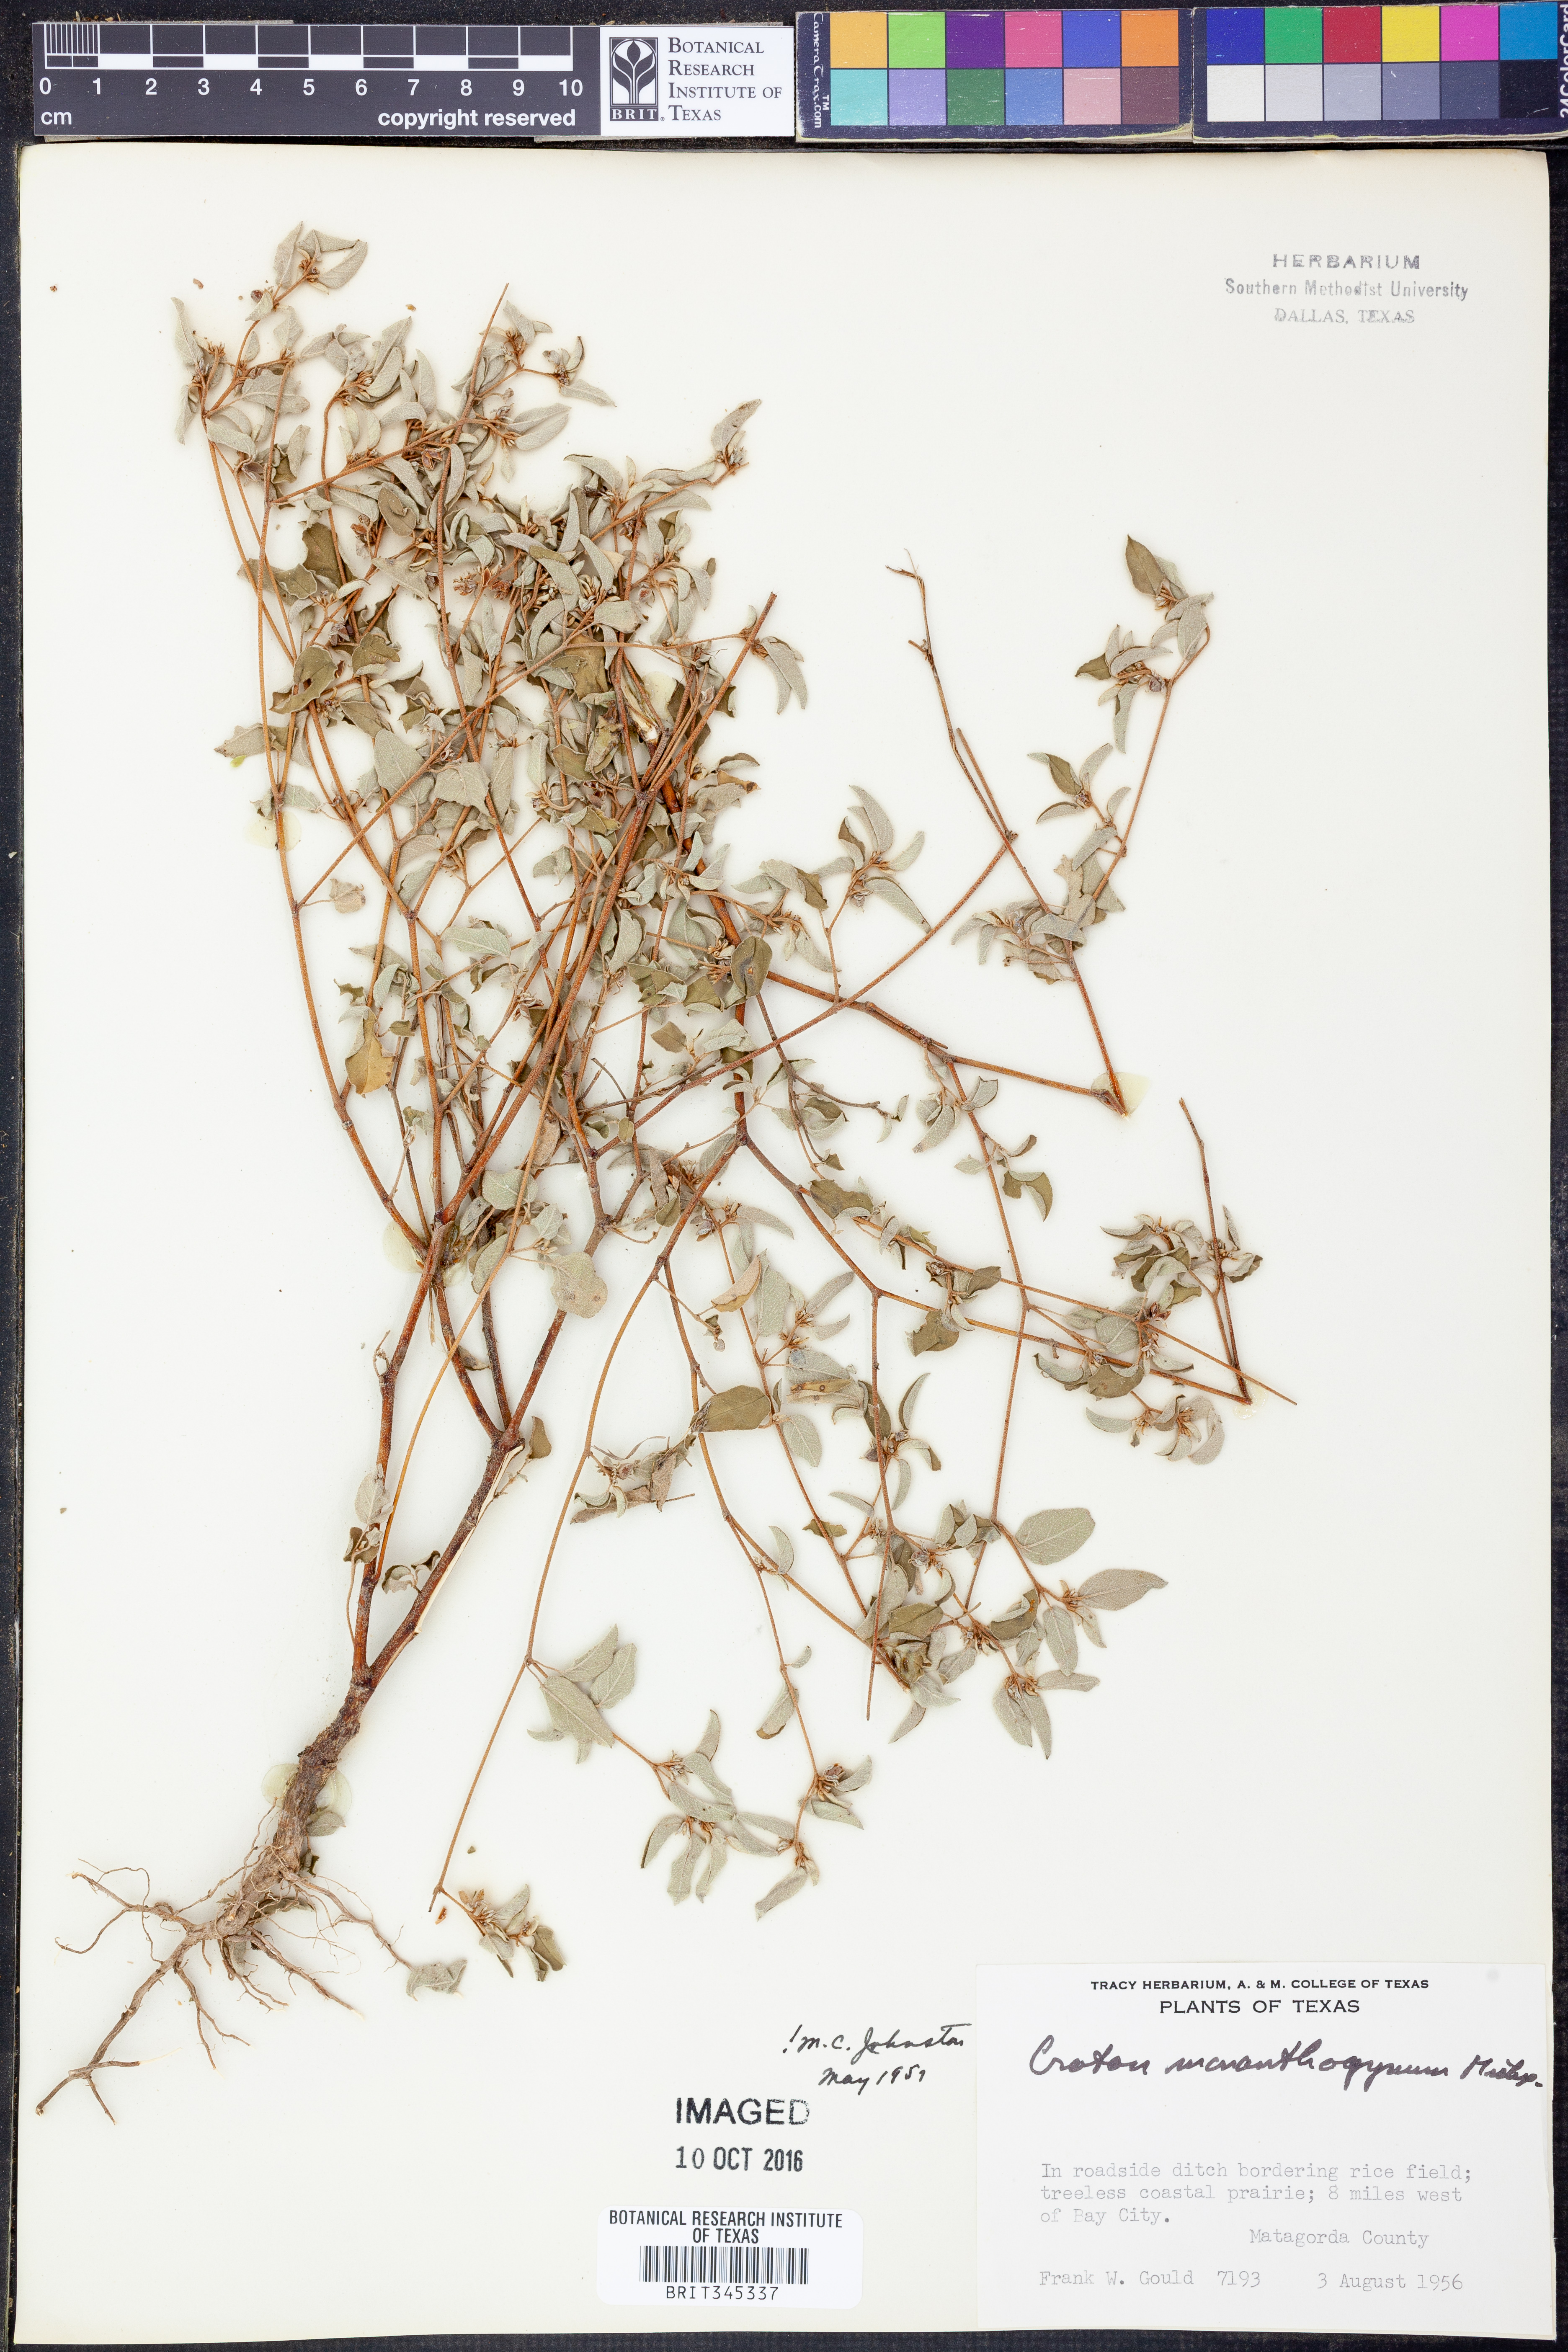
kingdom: Plantae
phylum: Tracheophyta
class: Magnoliopsida
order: Malpighiales
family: Euphorbiaceae
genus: Croton
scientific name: Croton monanthogynus
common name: One-seed croton
